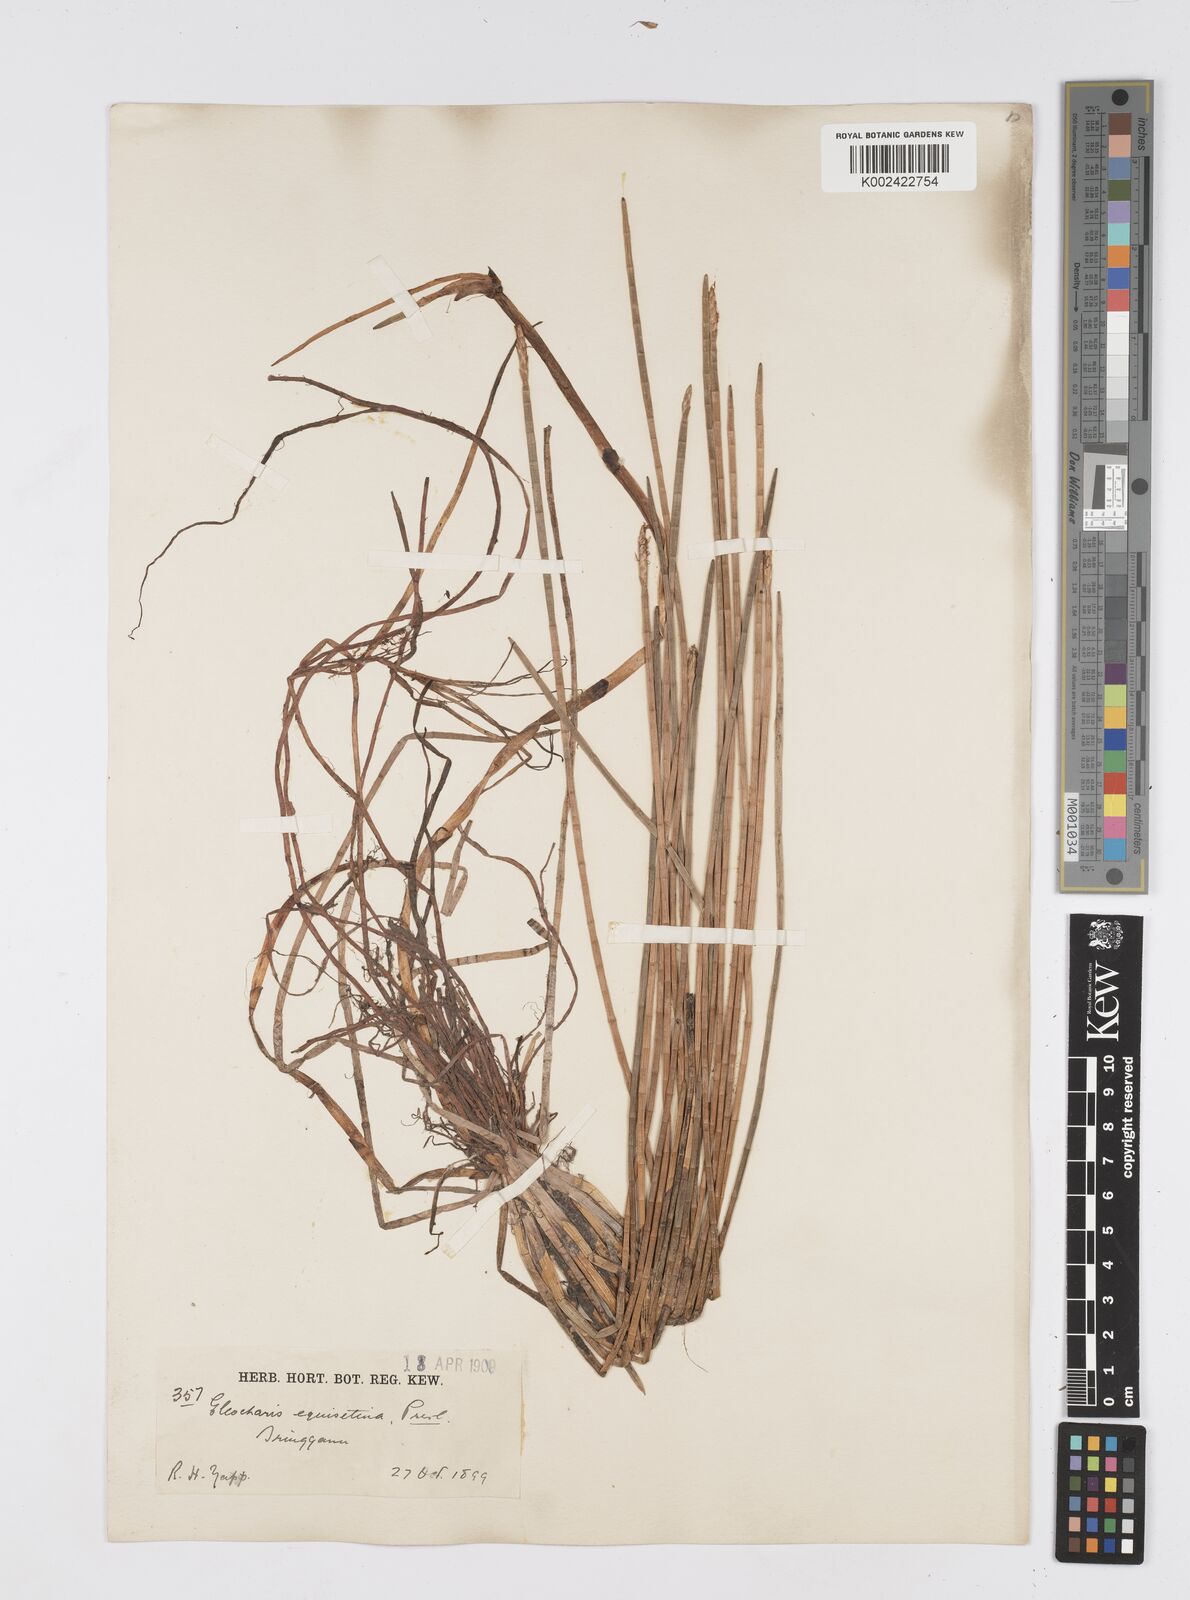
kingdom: Plantae
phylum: Tracheophyta
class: Liliopsida
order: Poales
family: Cyperaceae
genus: Eleocharis
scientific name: Eleocharis dulcis
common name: Chinese water chestnut
